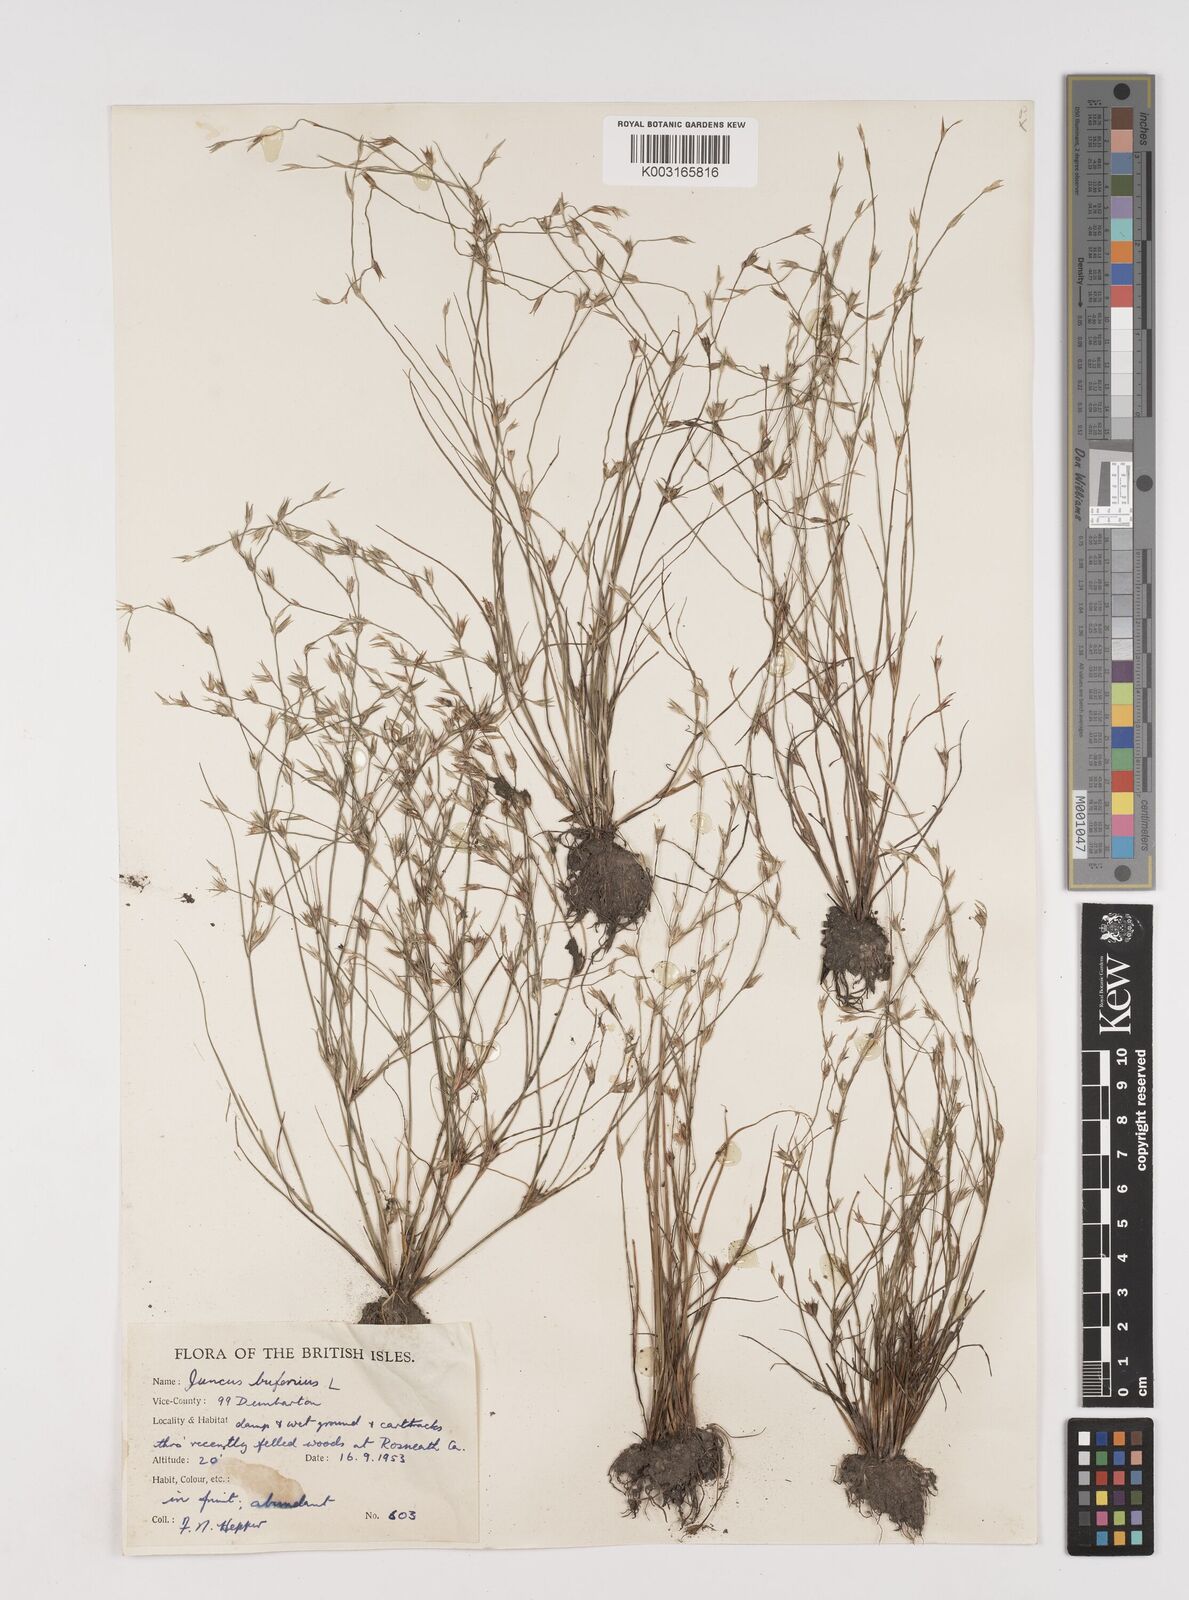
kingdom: Plantae
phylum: Tracheophyta
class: Liliopsida
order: Poales
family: Juncaceae
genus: Juncus
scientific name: Juncus bufonius
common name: Toad rush
